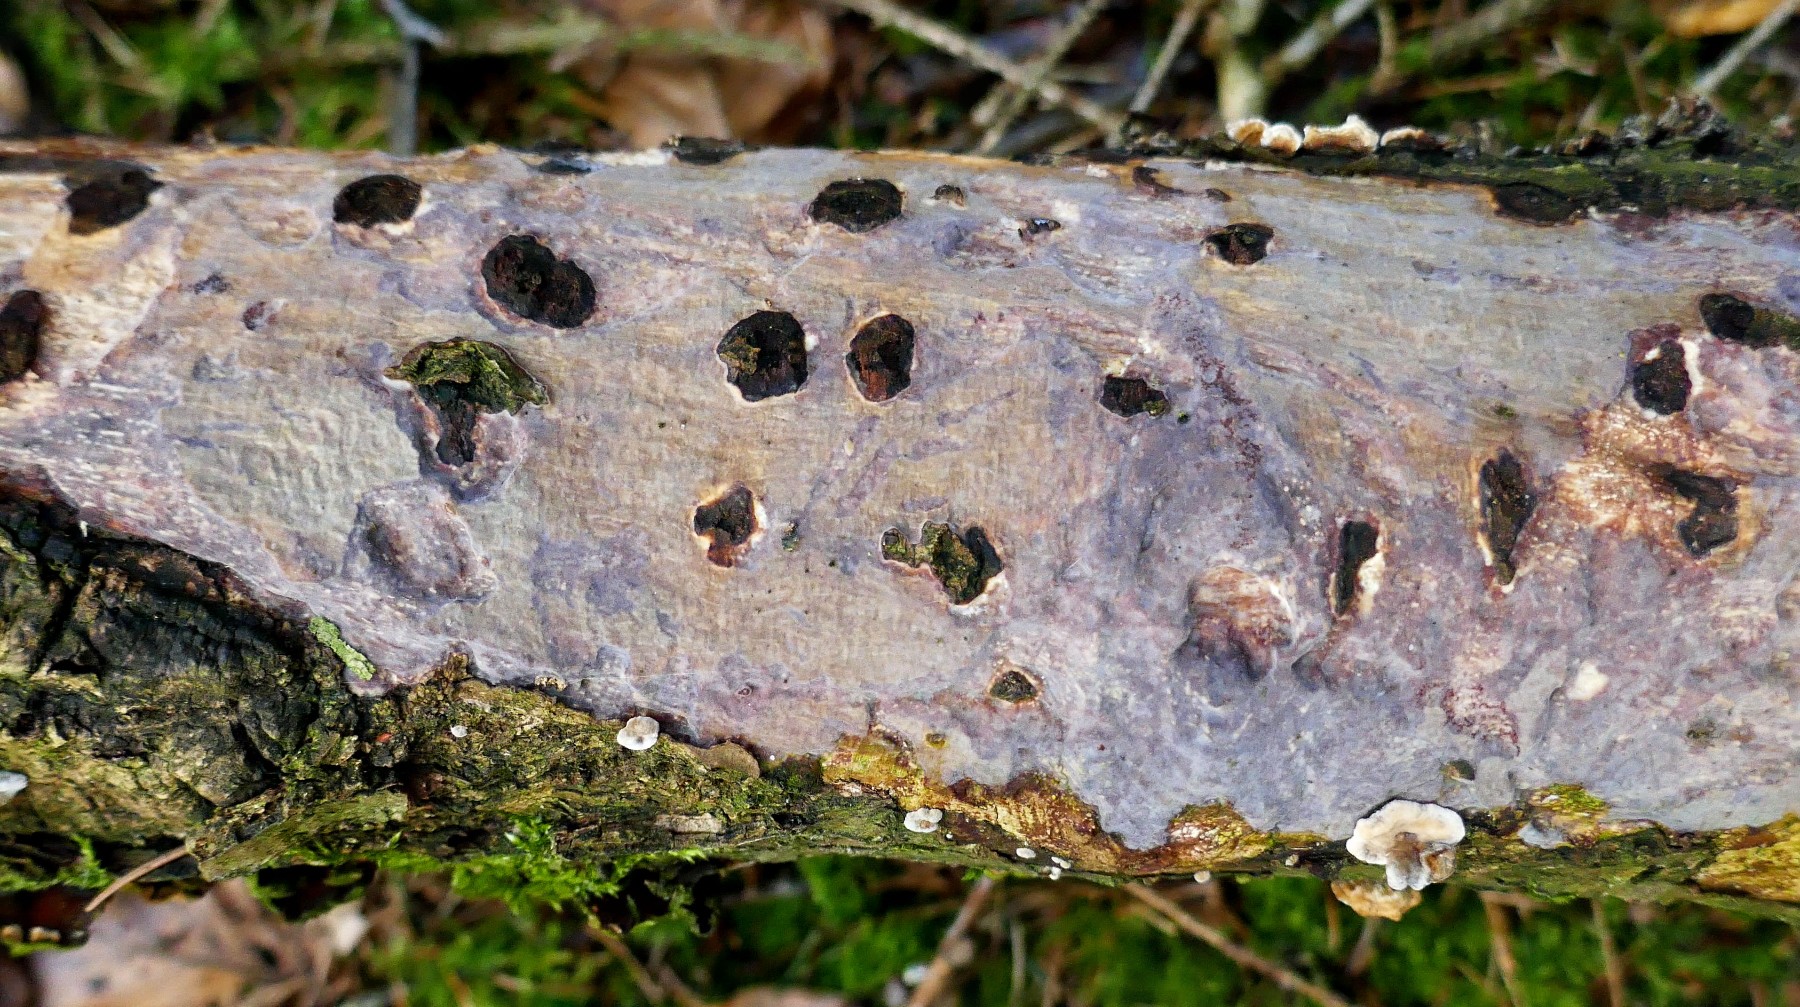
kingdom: Fungi
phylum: Basidiomycota
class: Agaricomycetes
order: Corticiales
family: Vuilleminiaceae
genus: Vuilleminia
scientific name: Vuilleminia comedens
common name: almindelig barksprænger
